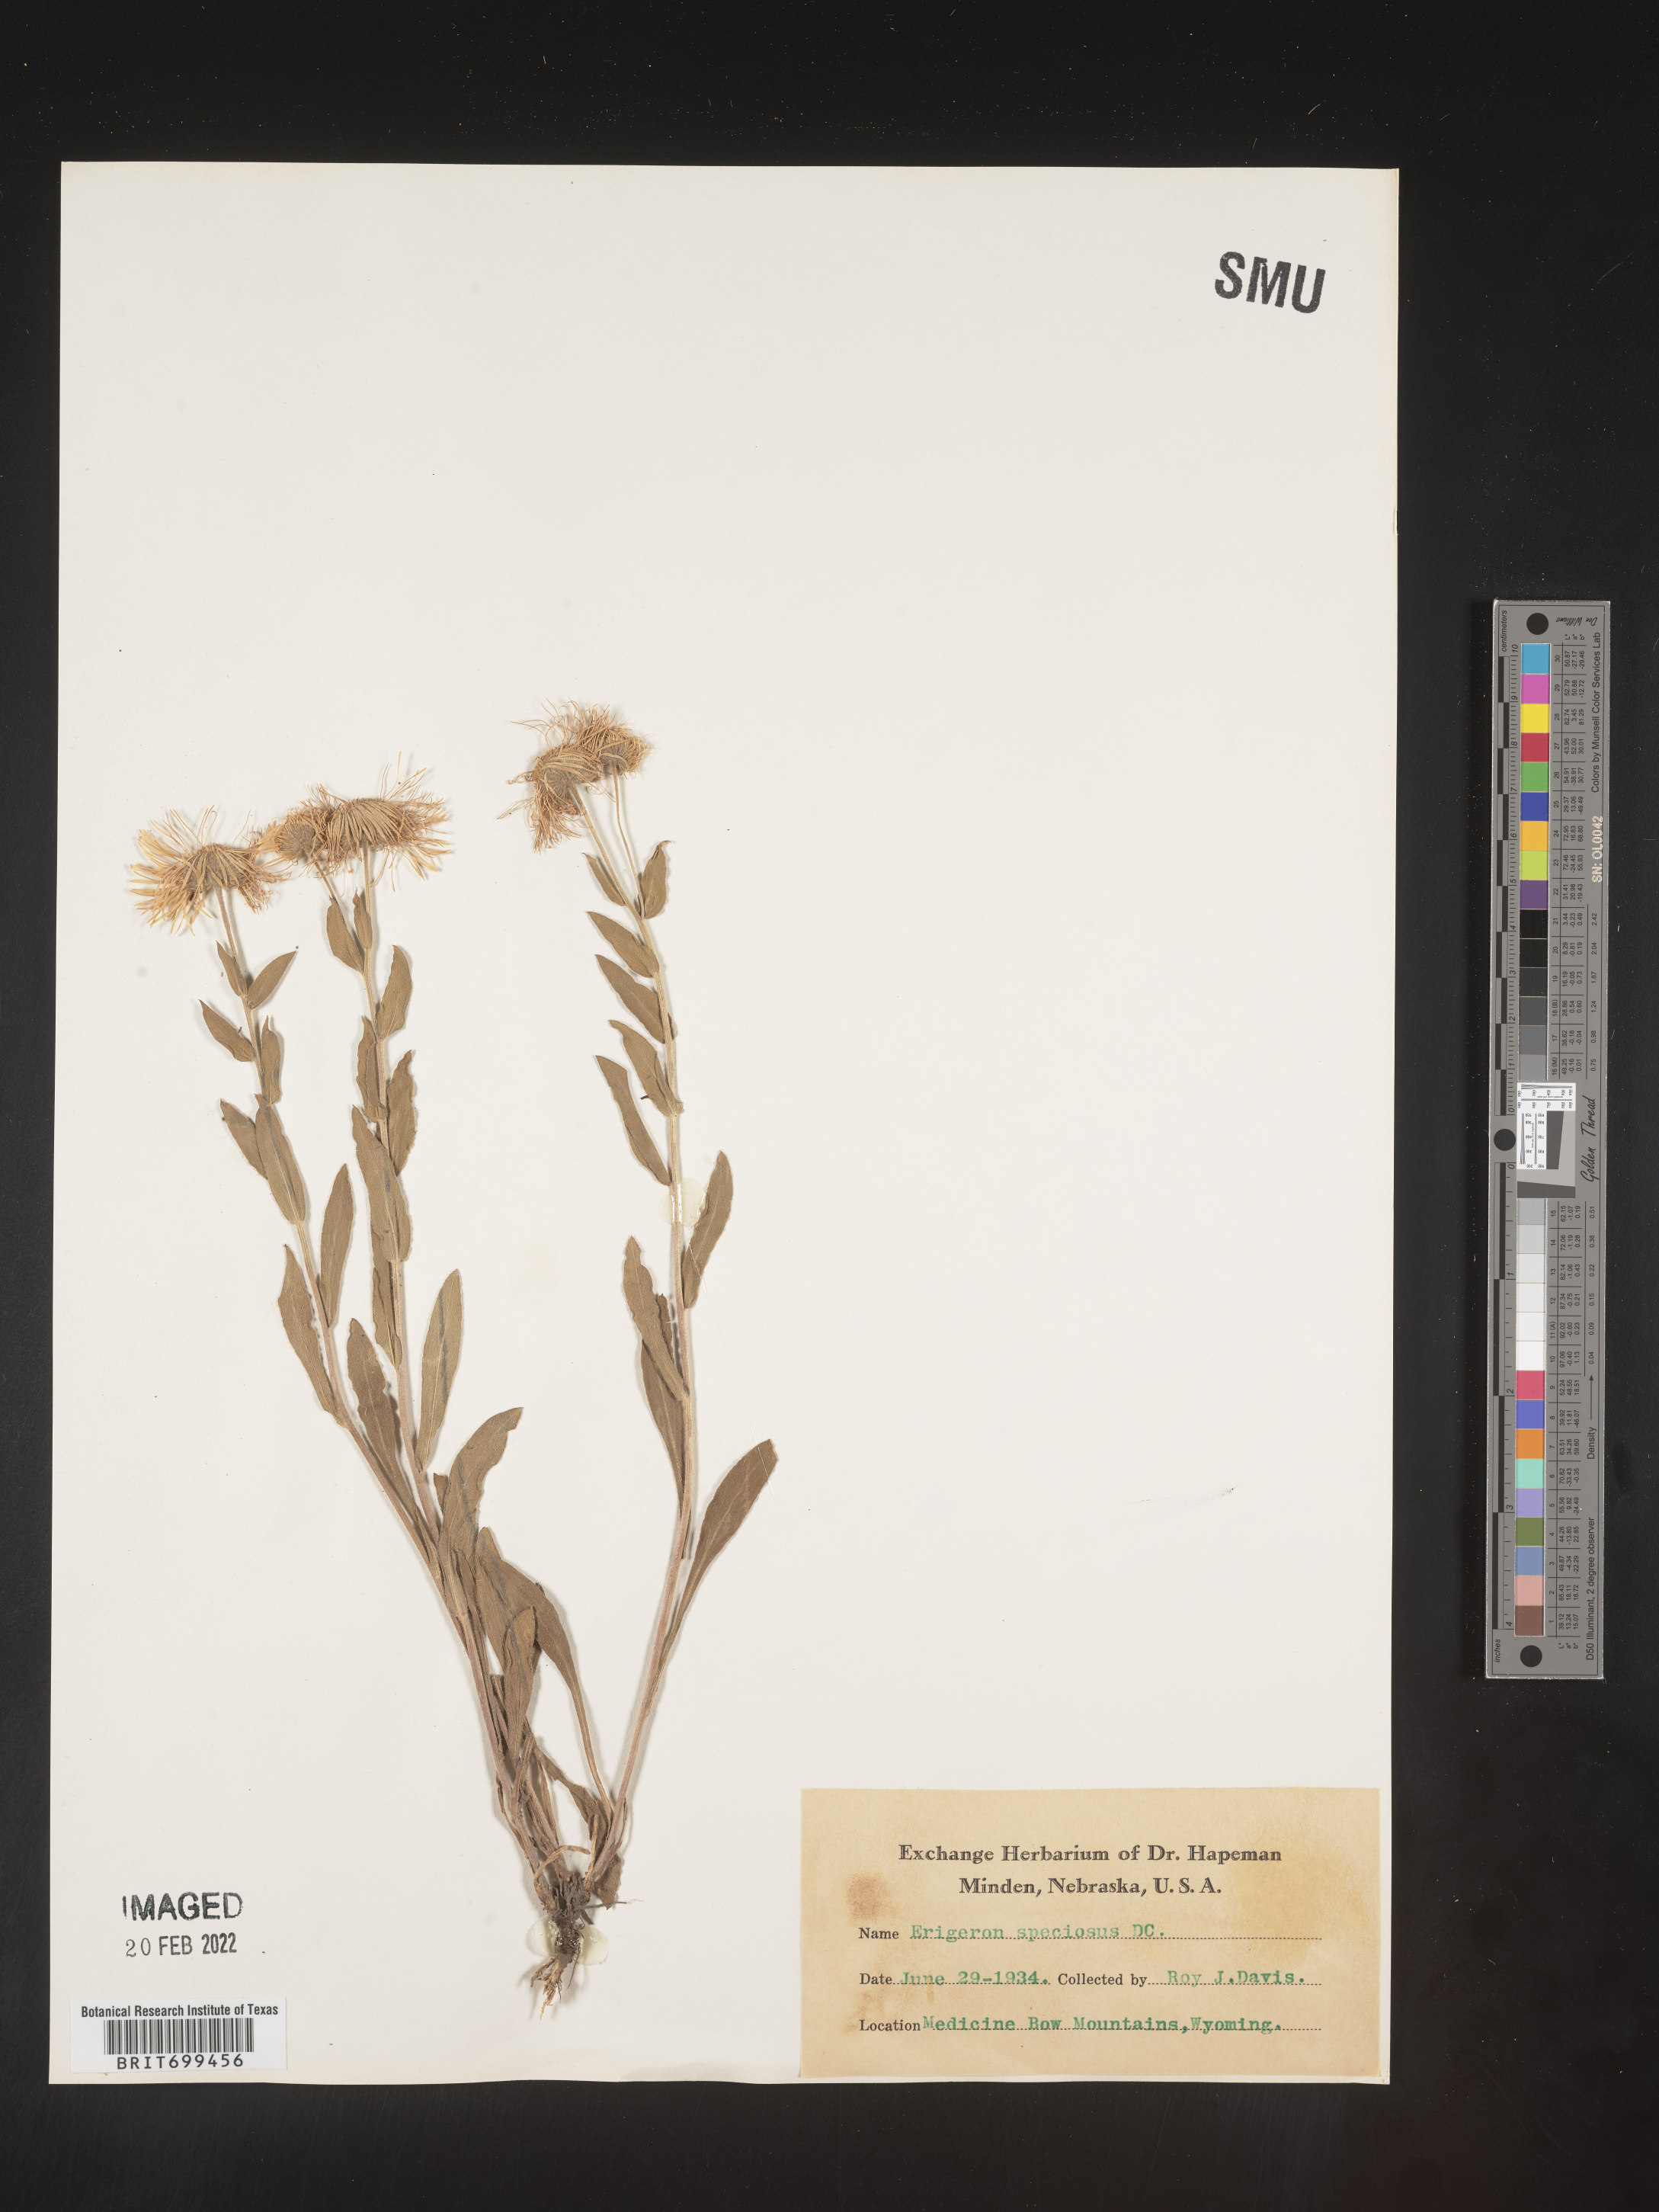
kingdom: Plantae
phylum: Tracheophyta
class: Magnoliopsida
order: Asterales
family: Asteraceae
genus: Erigeron
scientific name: Erigeron speciosus
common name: Aspen fleabane
